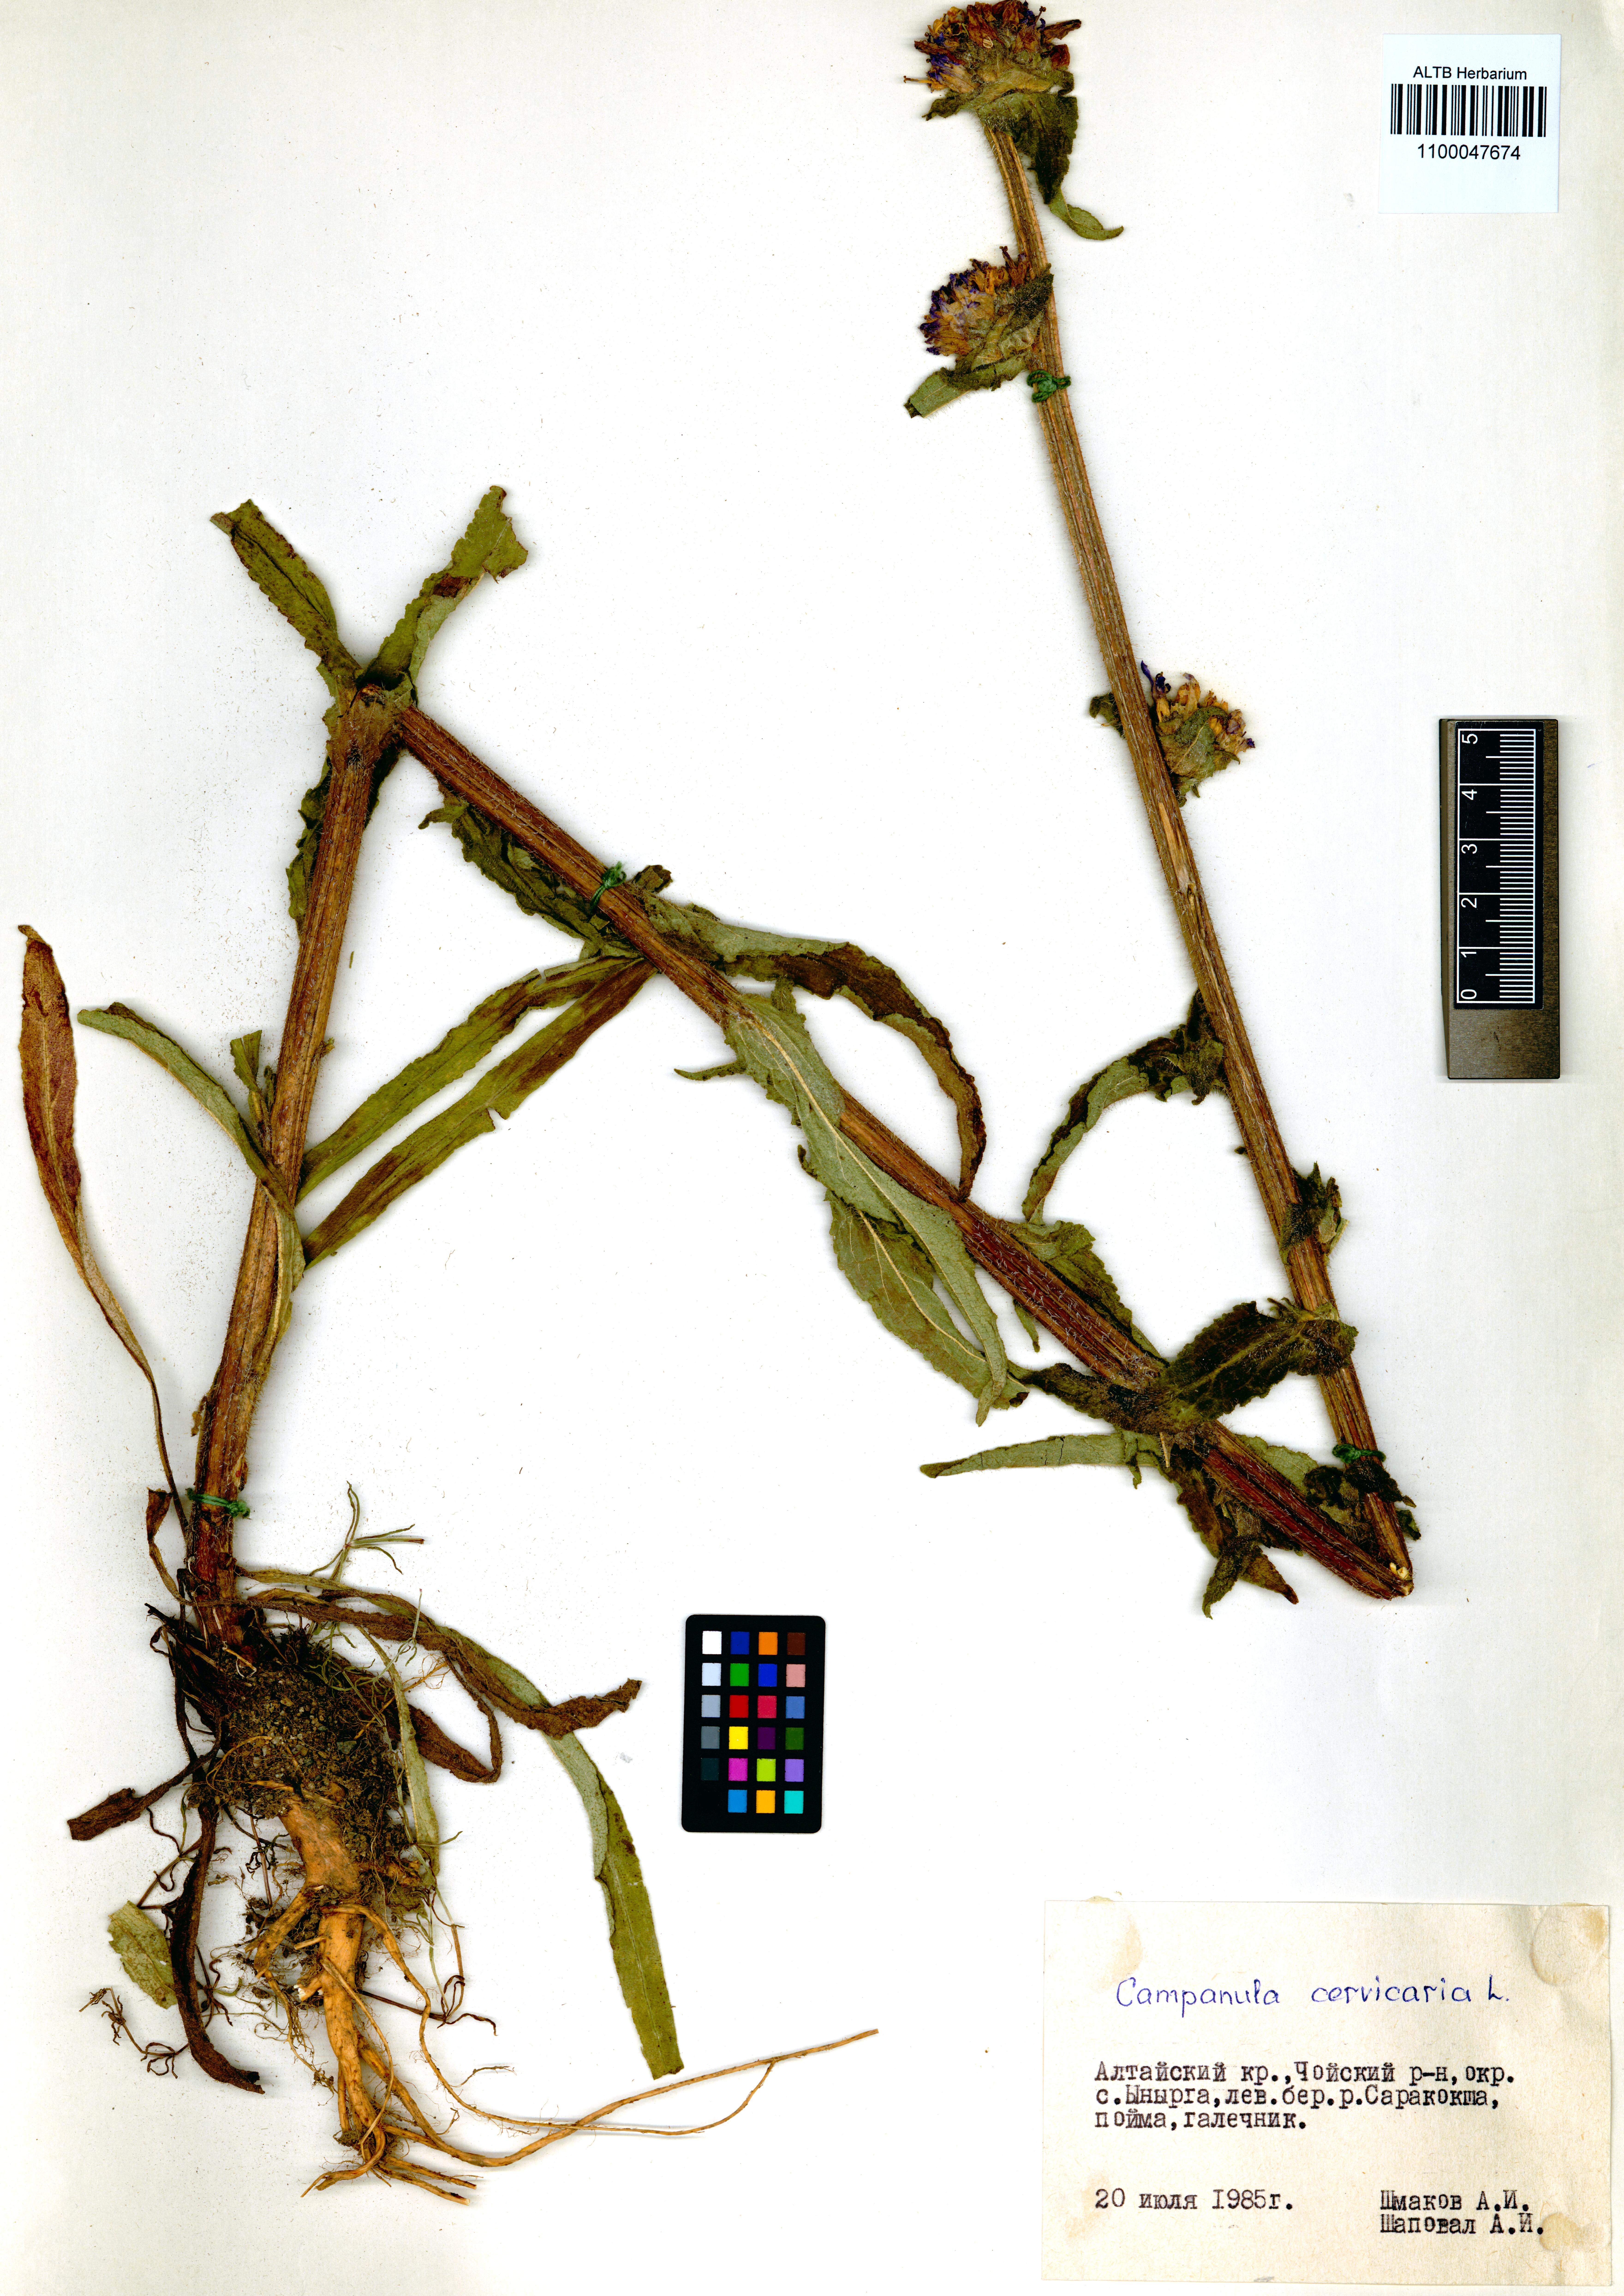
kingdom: Plantae
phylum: Tracheophyta
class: Magnoliopsida
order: Asterales
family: Campanulaceae
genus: Campanula
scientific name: Campanula cervicaria
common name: Bristly bellflower
